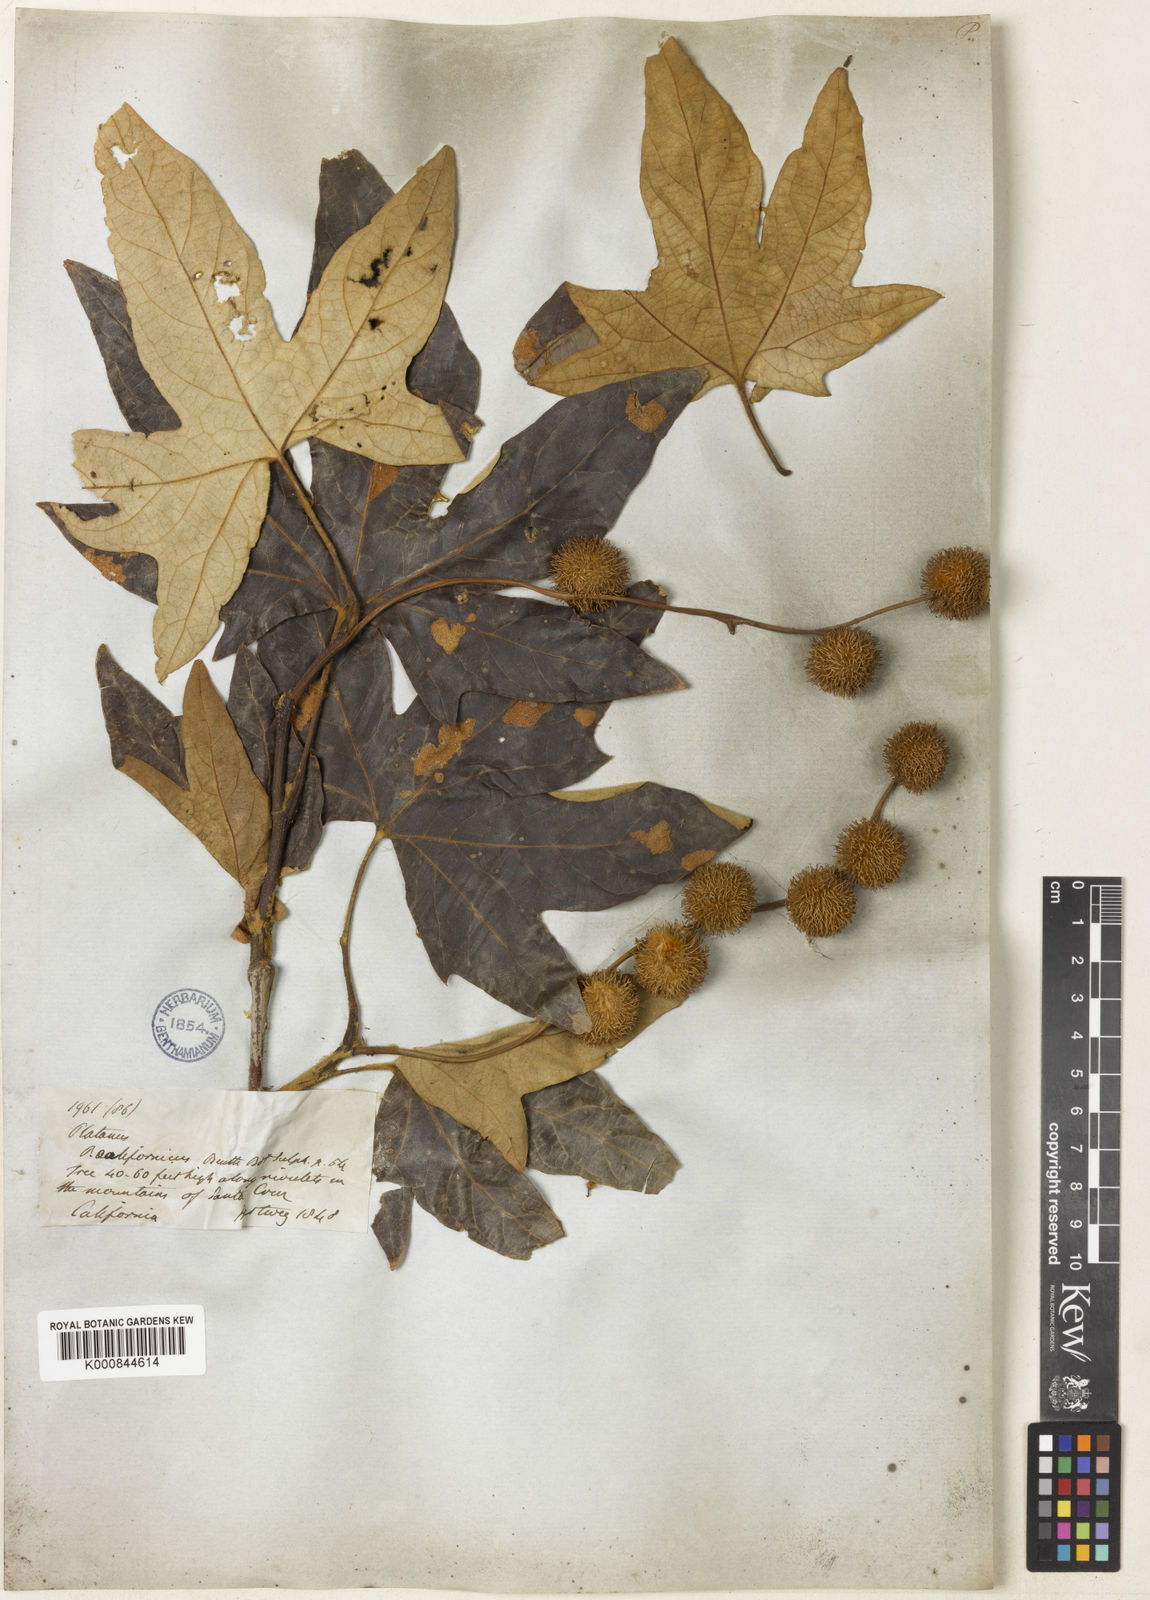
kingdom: Plantae
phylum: Tracheophyta
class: Magnoliopsida
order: Proteales
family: Platanaceae
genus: Platanus
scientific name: Platanus racemosa
